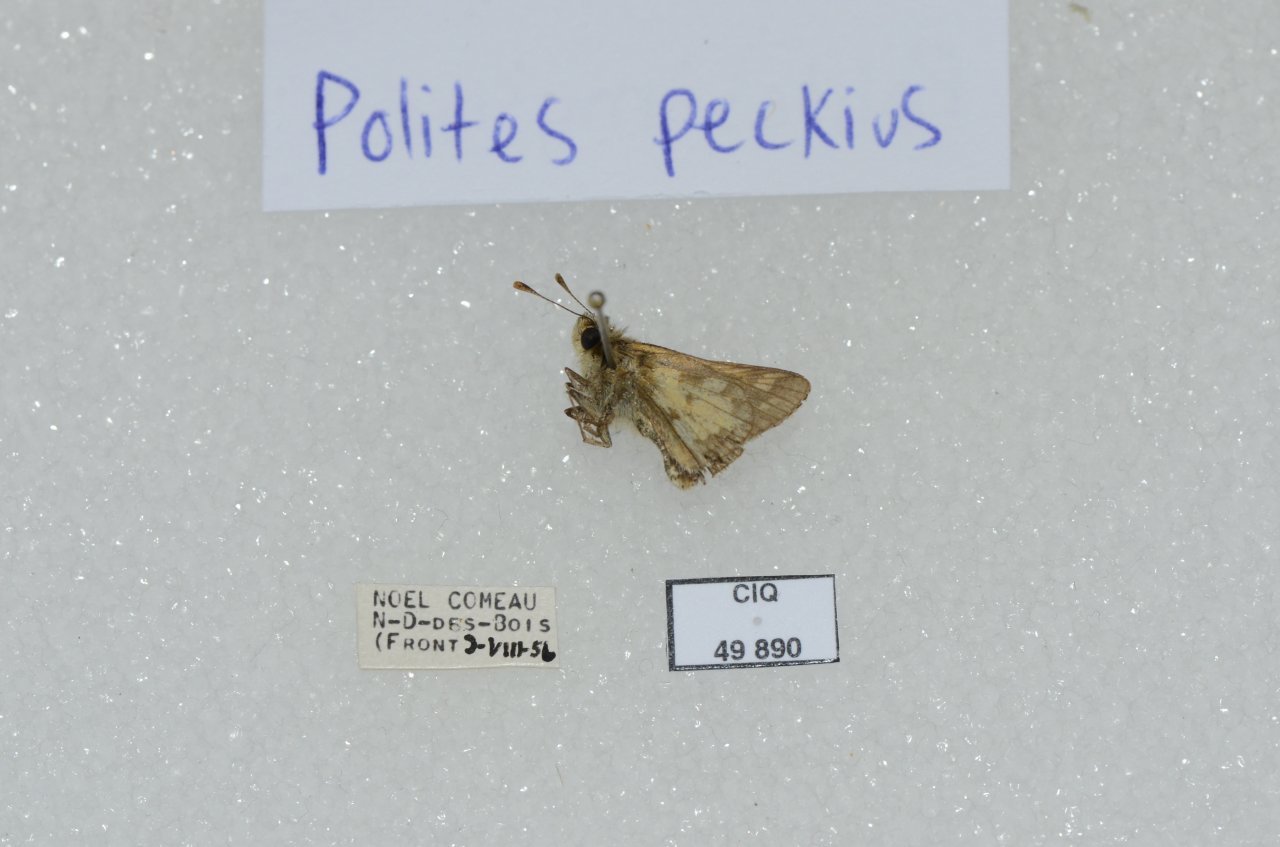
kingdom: Animalia
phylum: Arthropoda
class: Insecta
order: Lepidoptera
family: Hesperiidae
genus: Polites
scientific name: Polites coras
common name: Peck's Skipper
